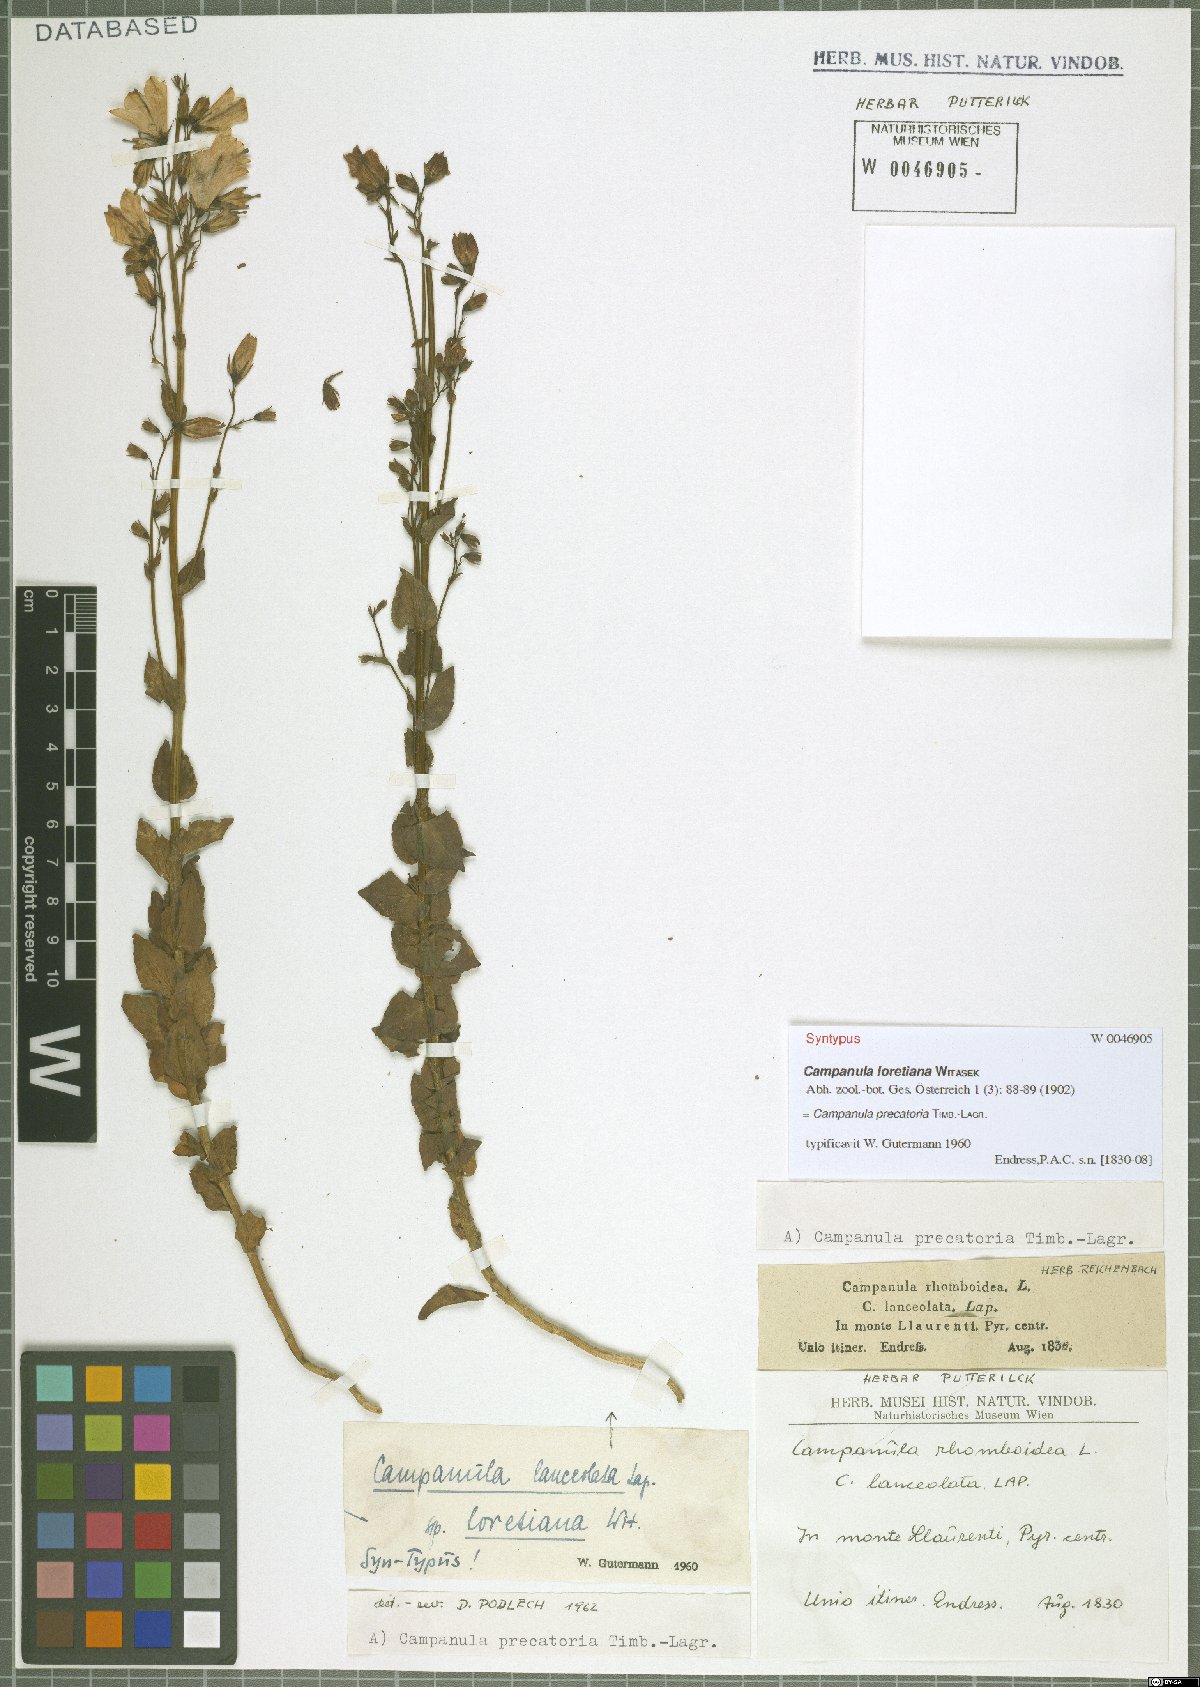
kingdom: Plantae
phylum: Tracheophyta
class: Magnoliopsida
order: Asterales
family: Campanulaceae
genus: Campanula
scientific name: Campanula precatoria
